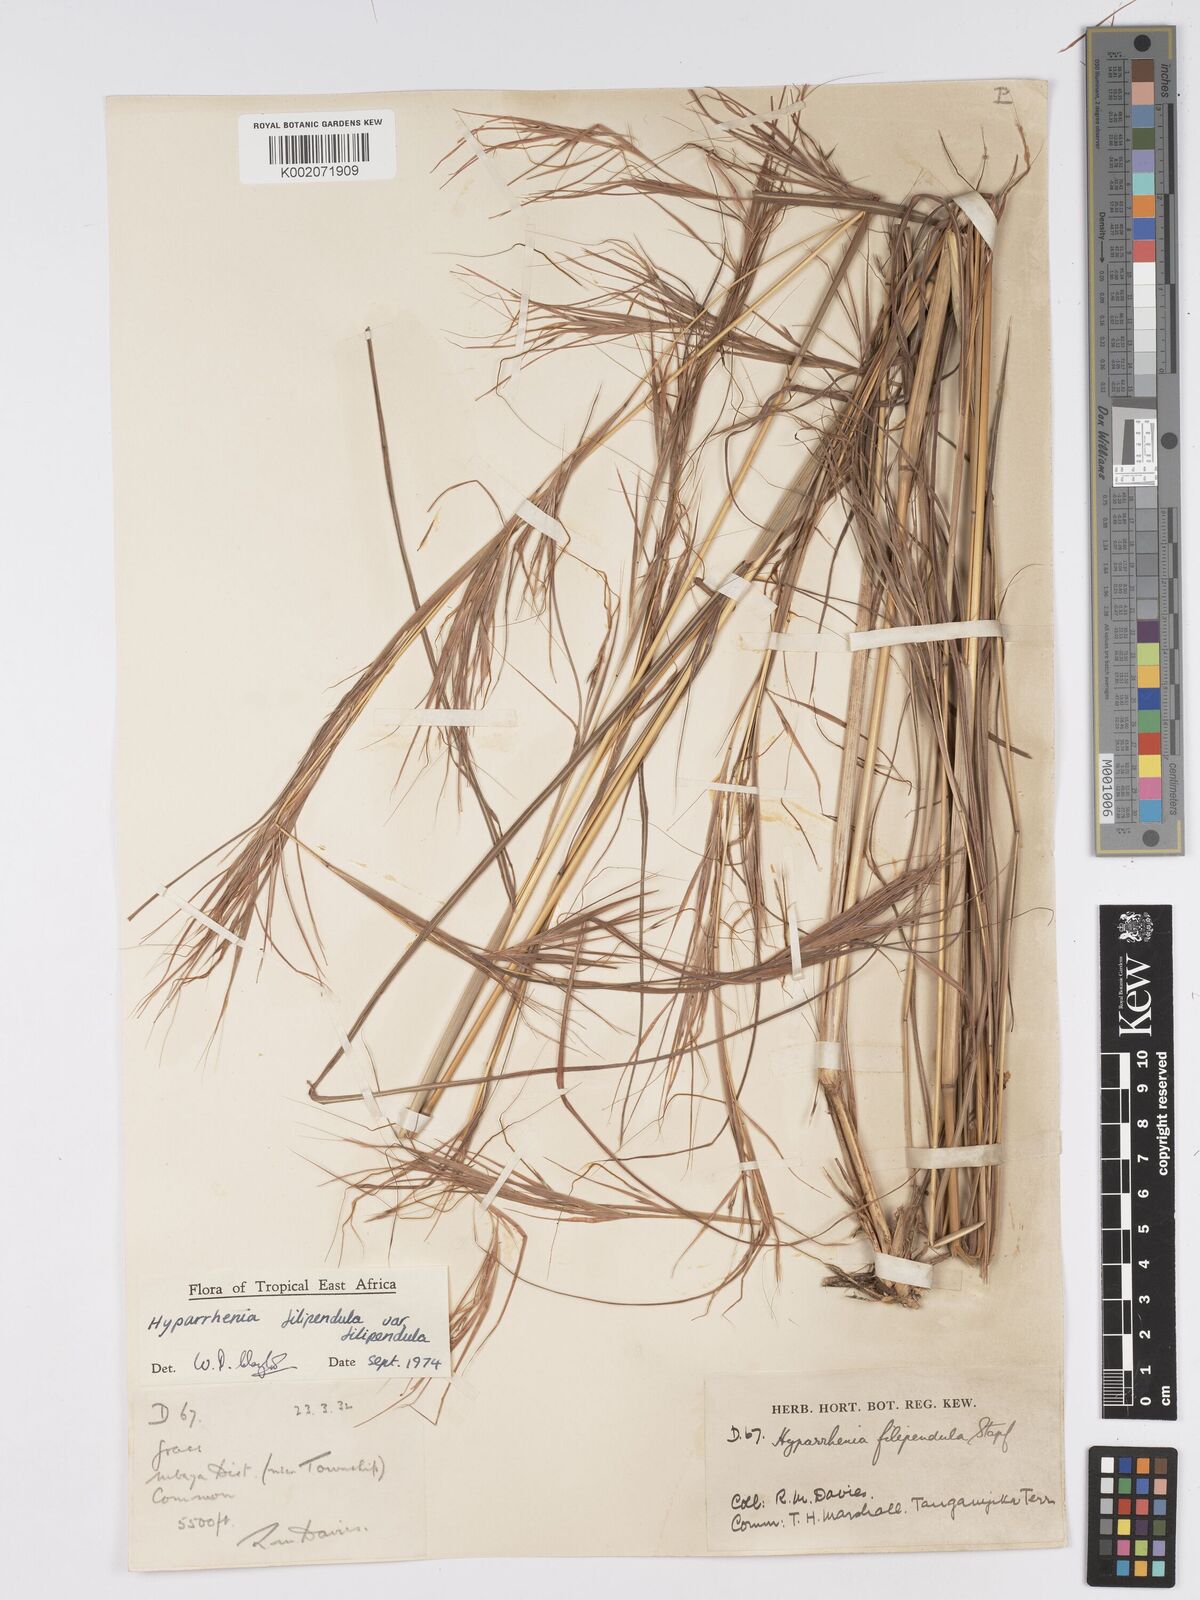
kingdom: Plantae
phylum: Tracheophyta
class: Liliopsida
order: Poales
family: Poaceae
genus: Hyparrhenia
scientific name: Hyparrhenia filipendula
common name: Tambookie grass
